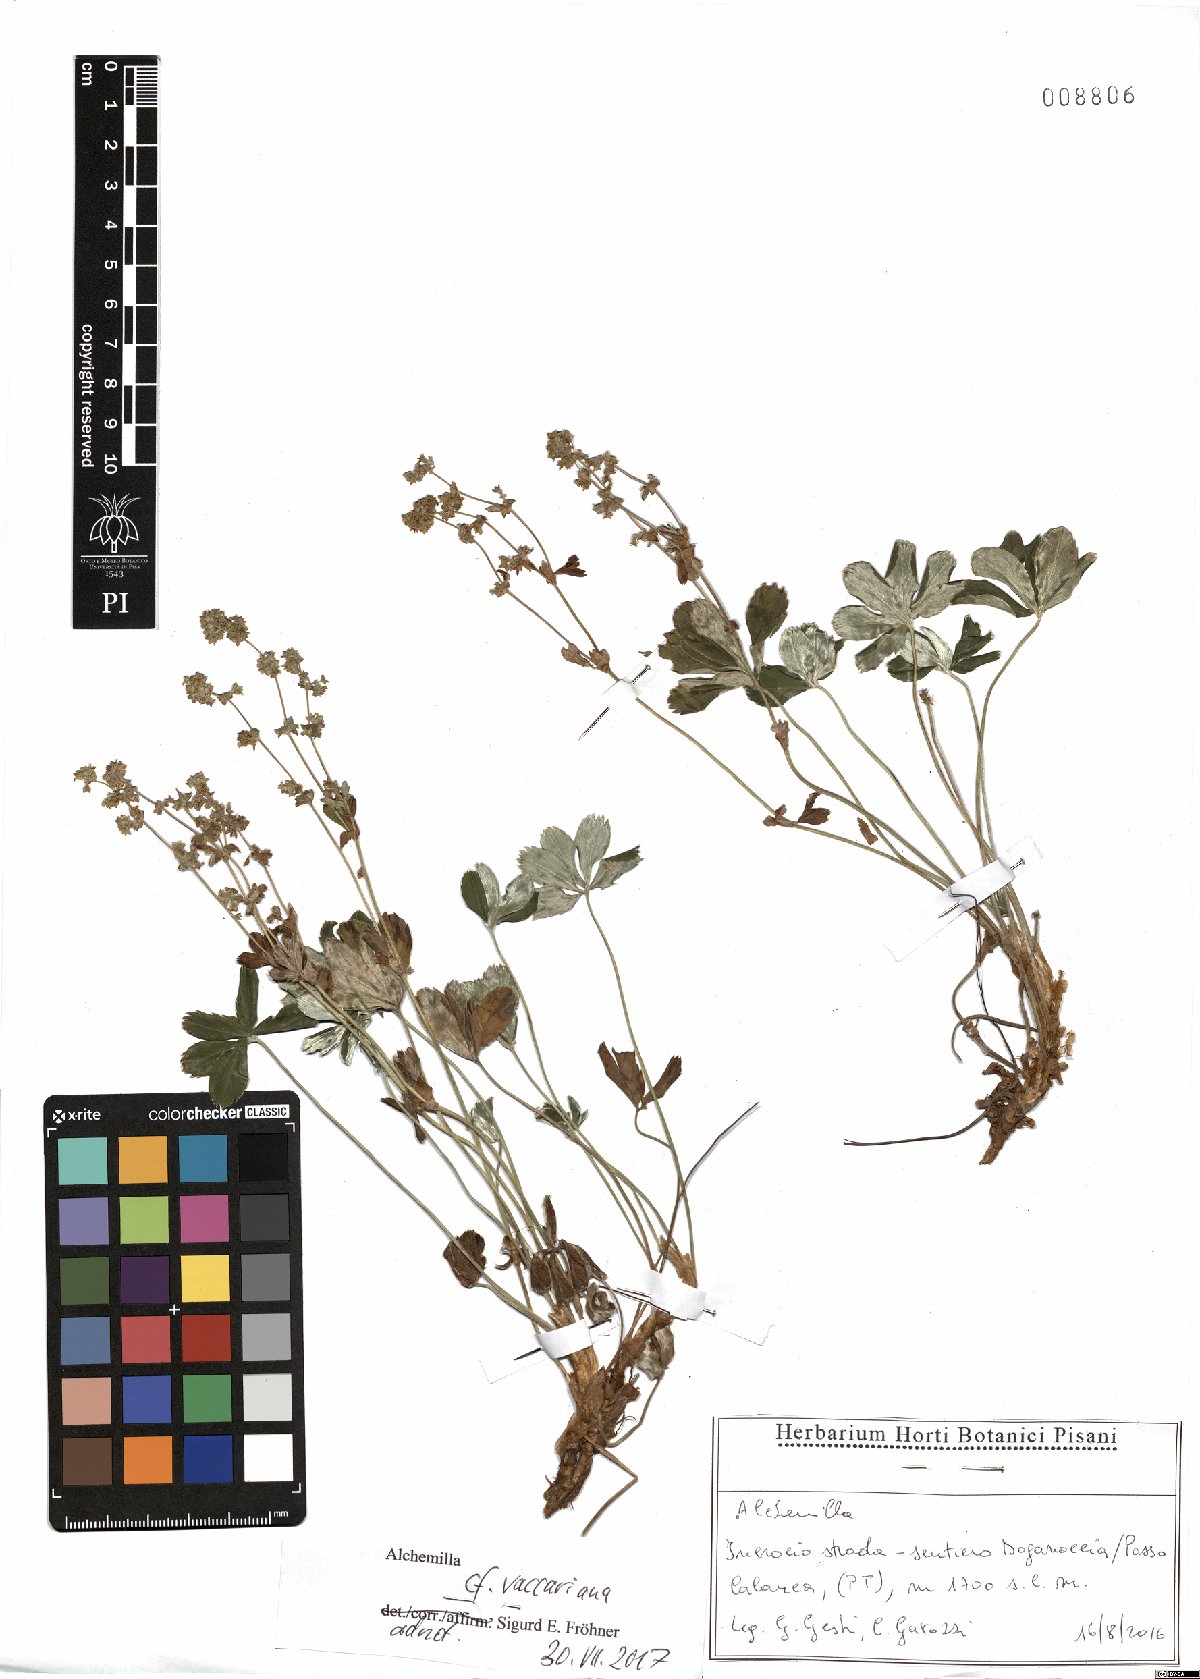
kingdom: Plantae
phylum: Tracheophyta
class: Magnoliopsida
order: Rosales
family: Rosaceae
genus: Alchemilla
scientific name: Alchemilla vaccariana
